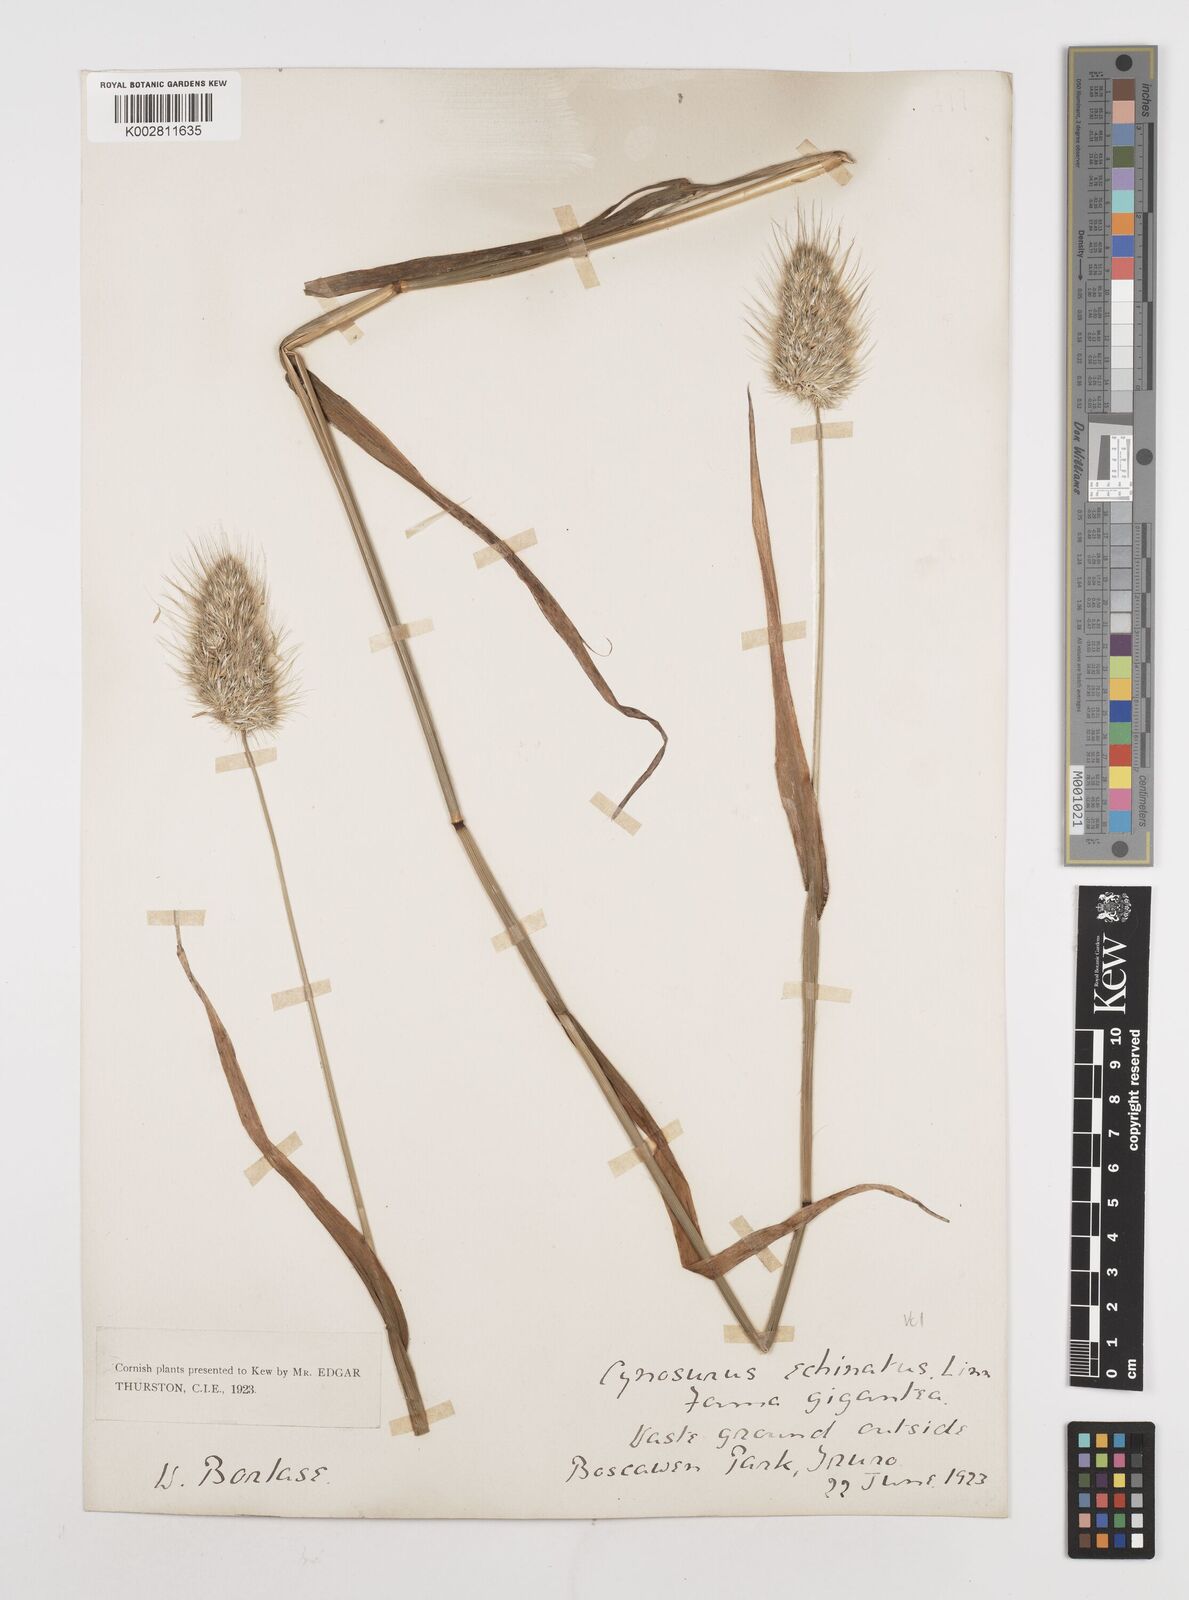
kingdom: Plantae
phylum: Tracheophyta
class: Liliopsida
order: Poales
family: Poaceae
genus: Cynosurus
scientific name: Cynosurus echinatus
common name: Rough dog's-tail
